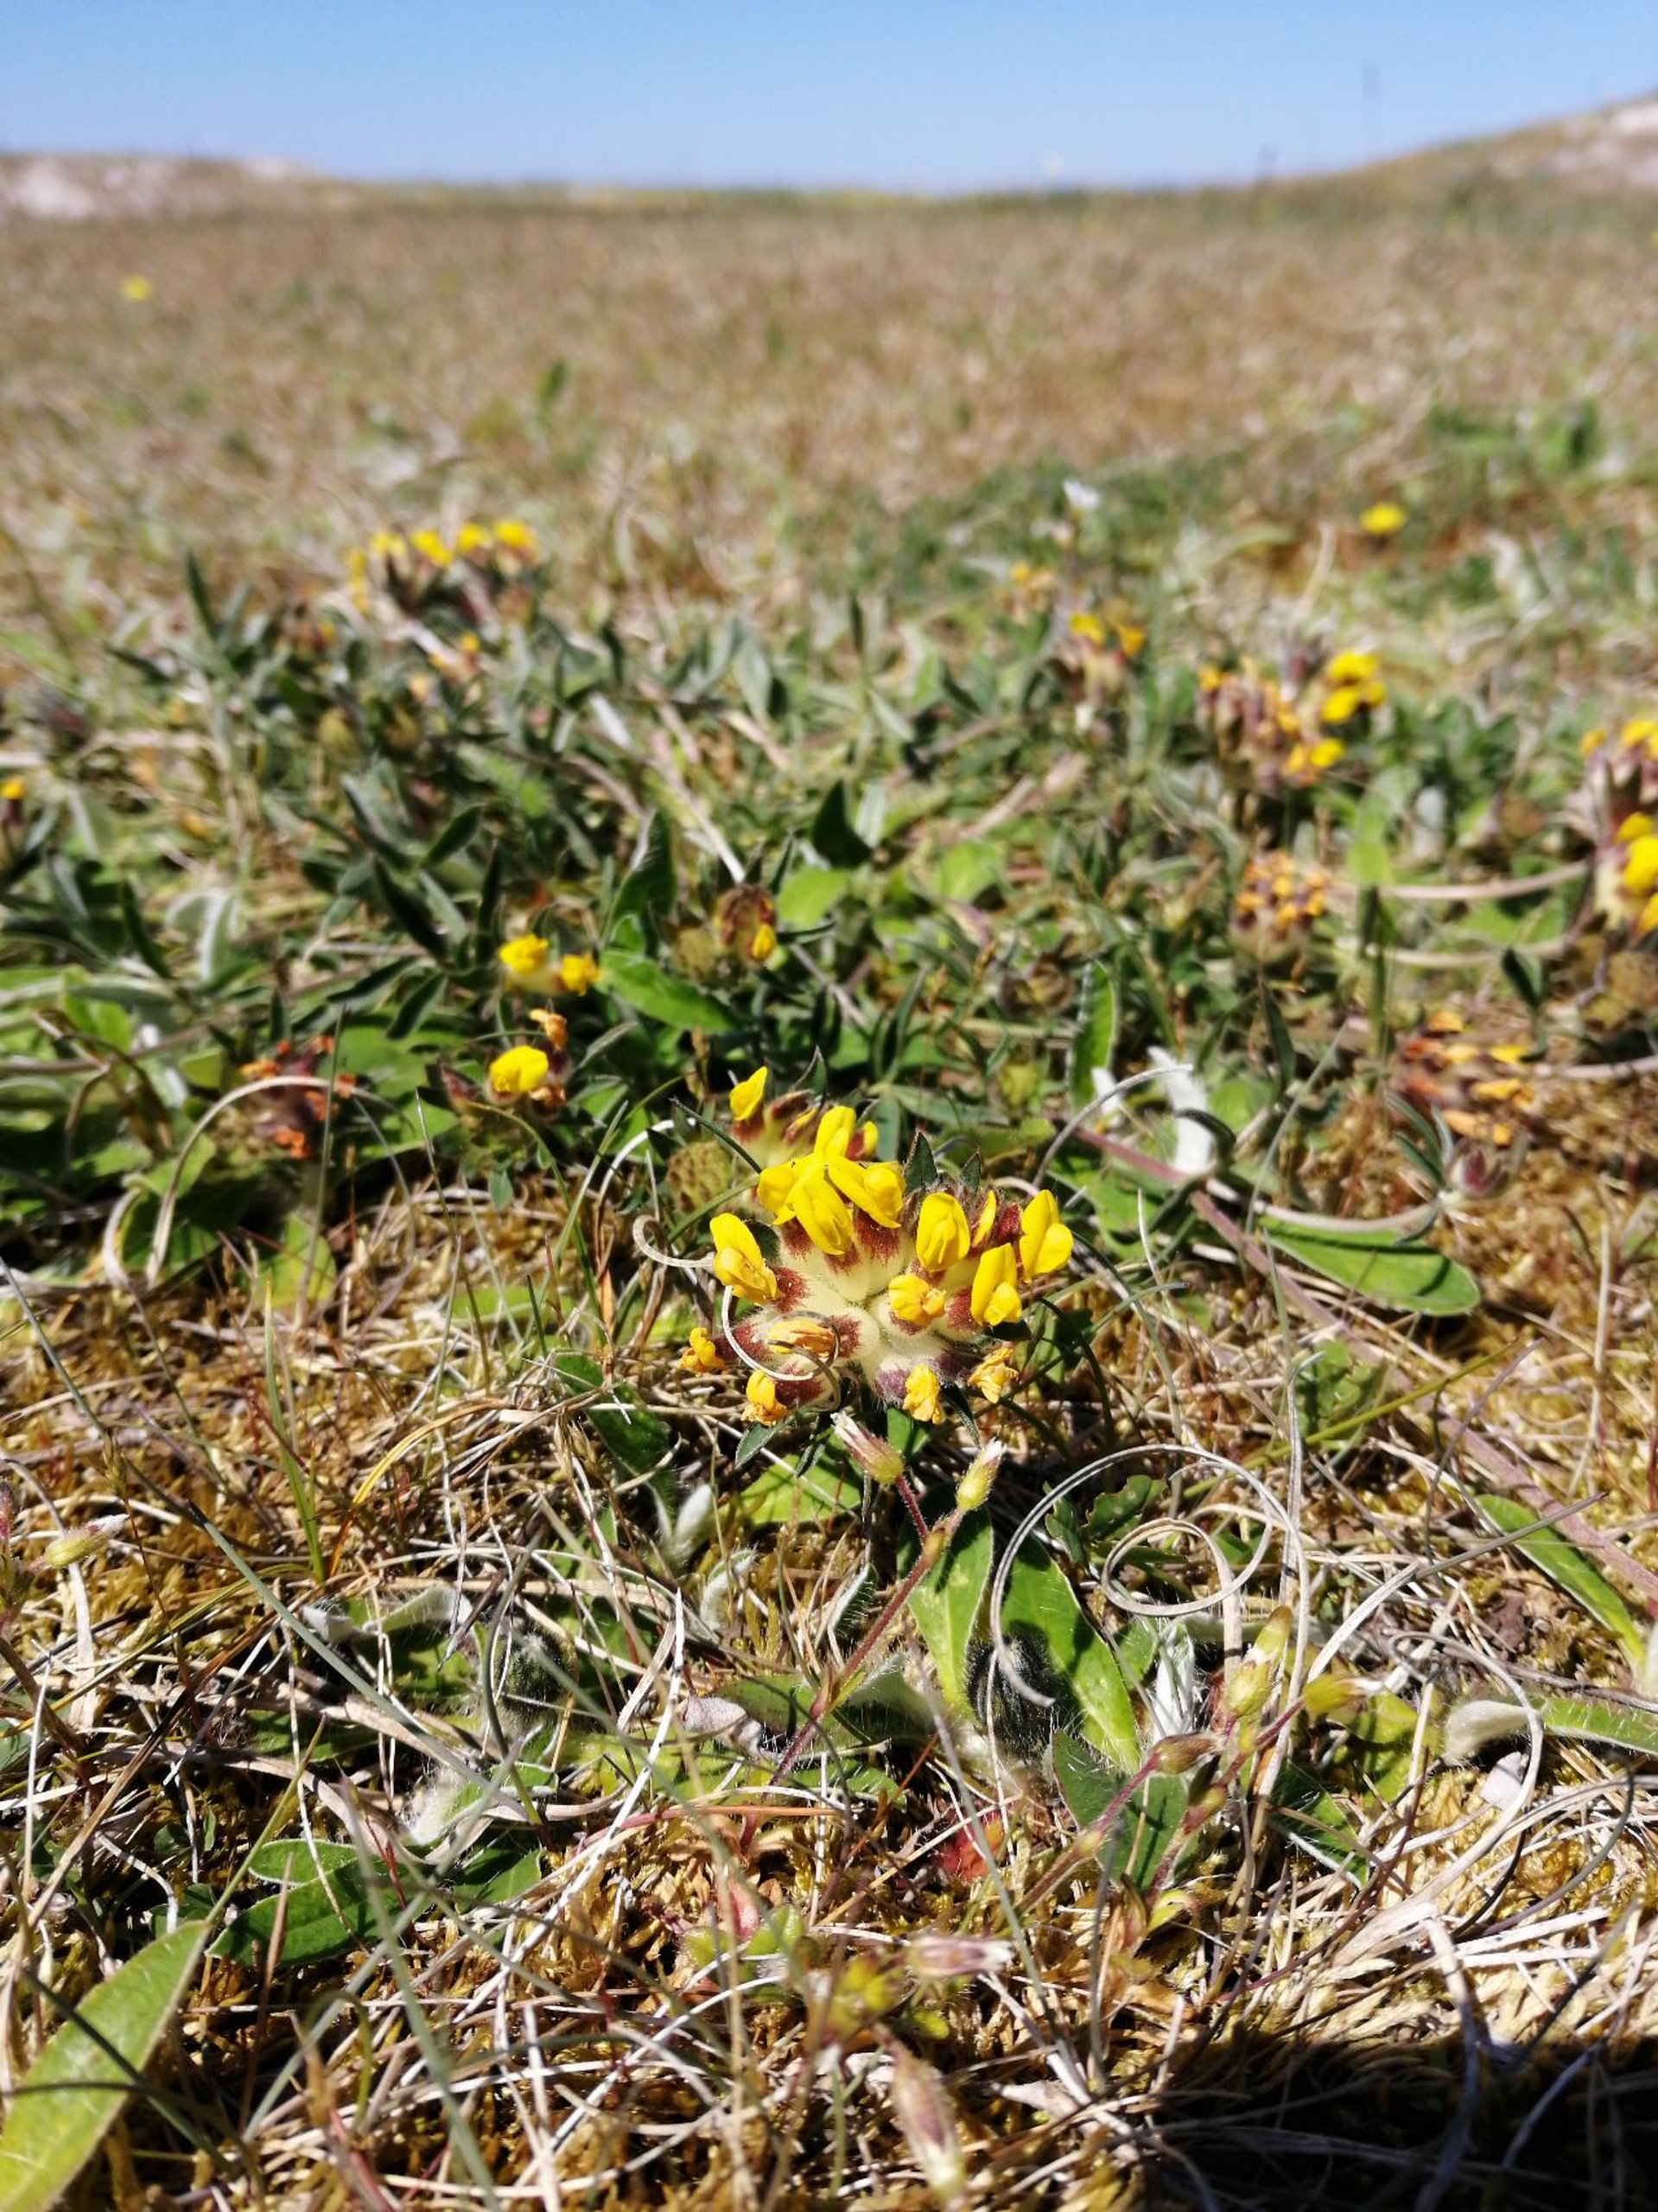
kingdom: Plantae
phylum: Tracheophyta
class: Magnoliopsida
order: Fabales
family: Fabaceae
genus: Anthyllis
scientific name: Anthyllis vulneraria
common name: Rundbælg
